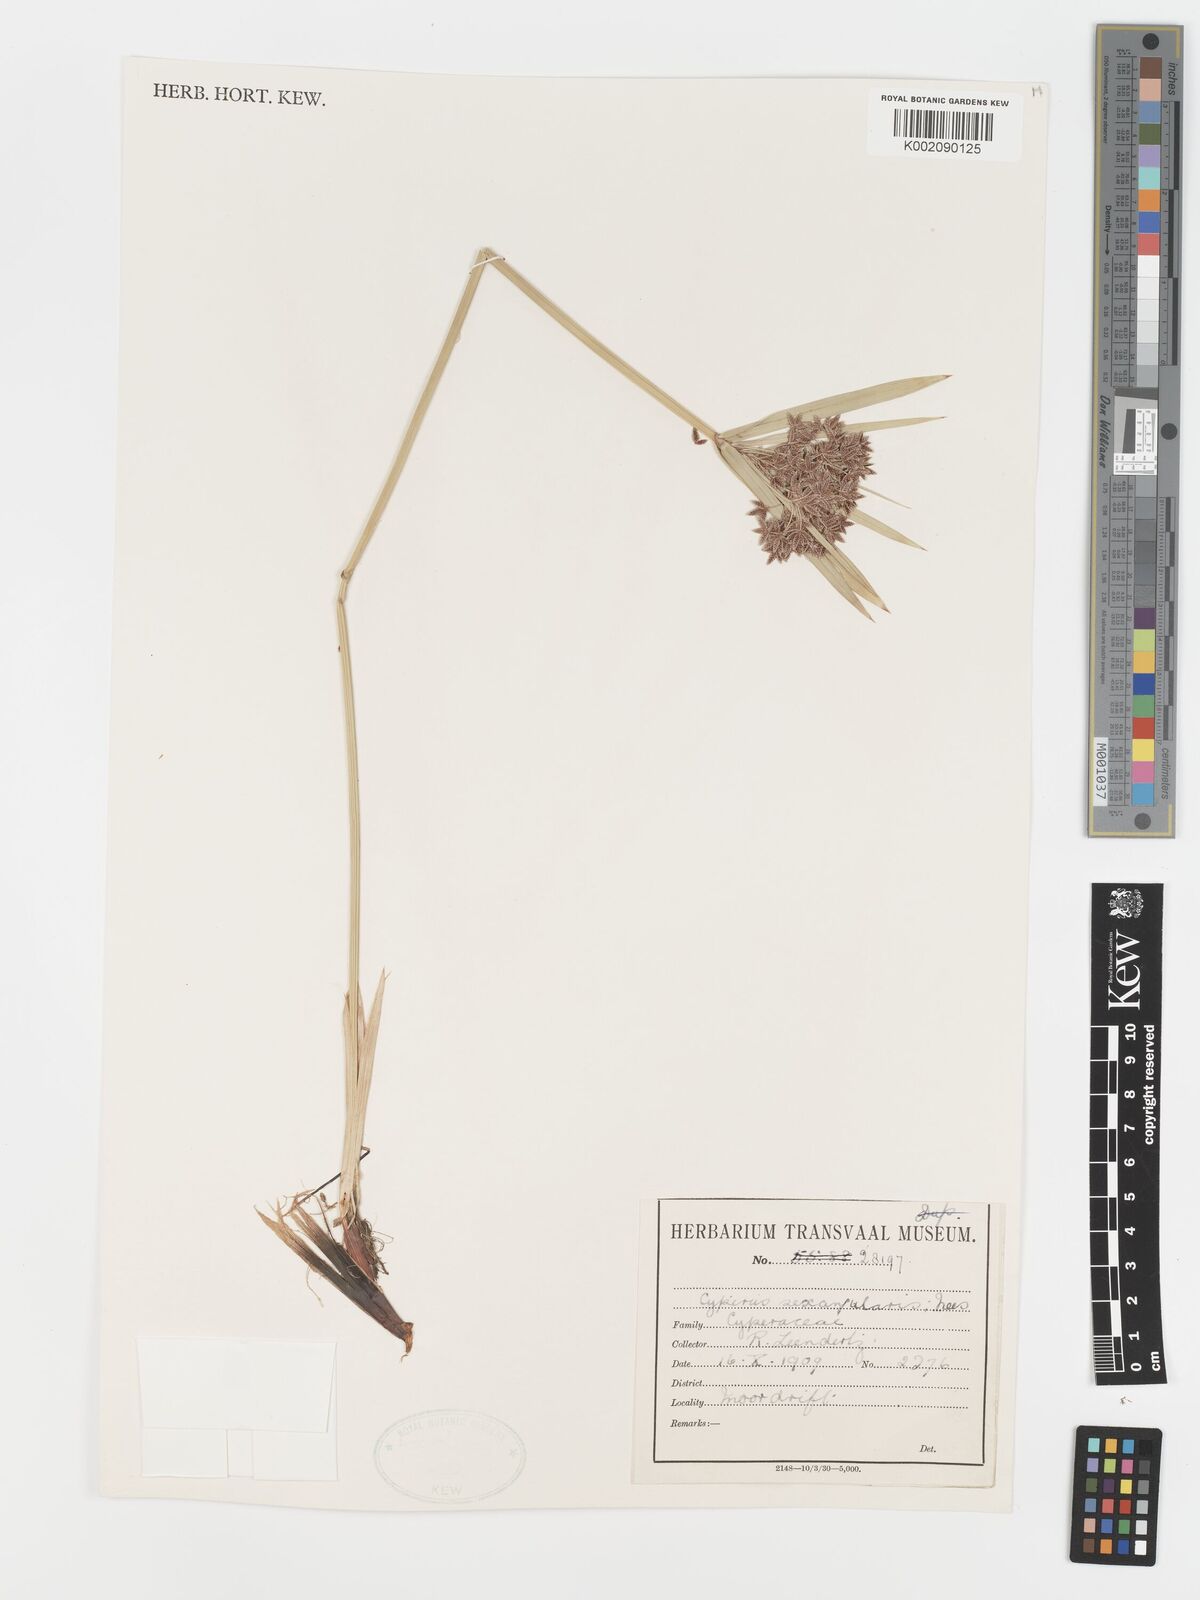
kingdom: Plantae
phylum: Tracheophyta
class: Liliopsida
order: Poales
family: Cyperaceae
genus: Cyperus
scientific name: Cyperus sexangularis
